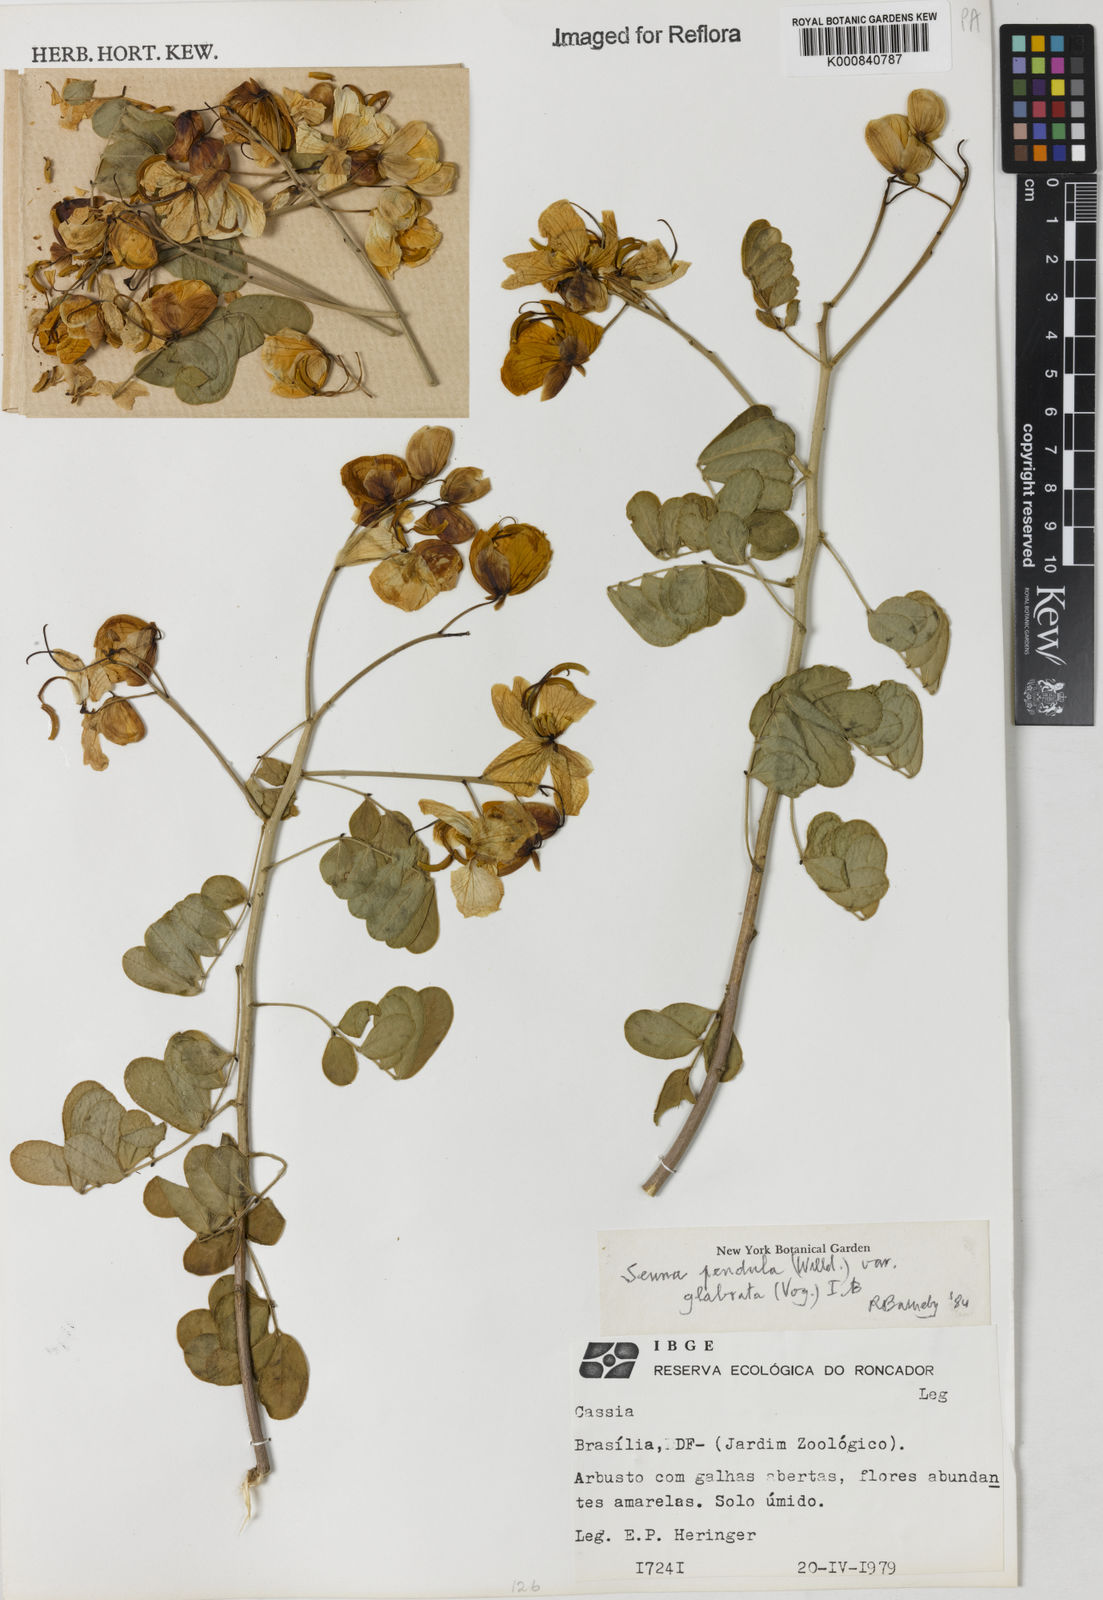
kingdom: Plantae
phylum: Tracheophyta
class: Magnoliopsida
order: Fabales
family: Fabaceae
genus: Senna
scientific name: Senna pendula
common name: Easter cassia
